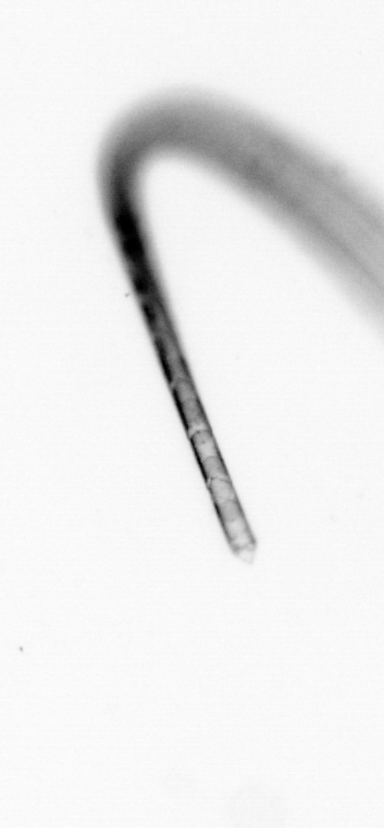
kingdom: Chromista
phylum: Ochrophyta
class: Bacillariophyceae
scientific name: Bacillariophyceae
